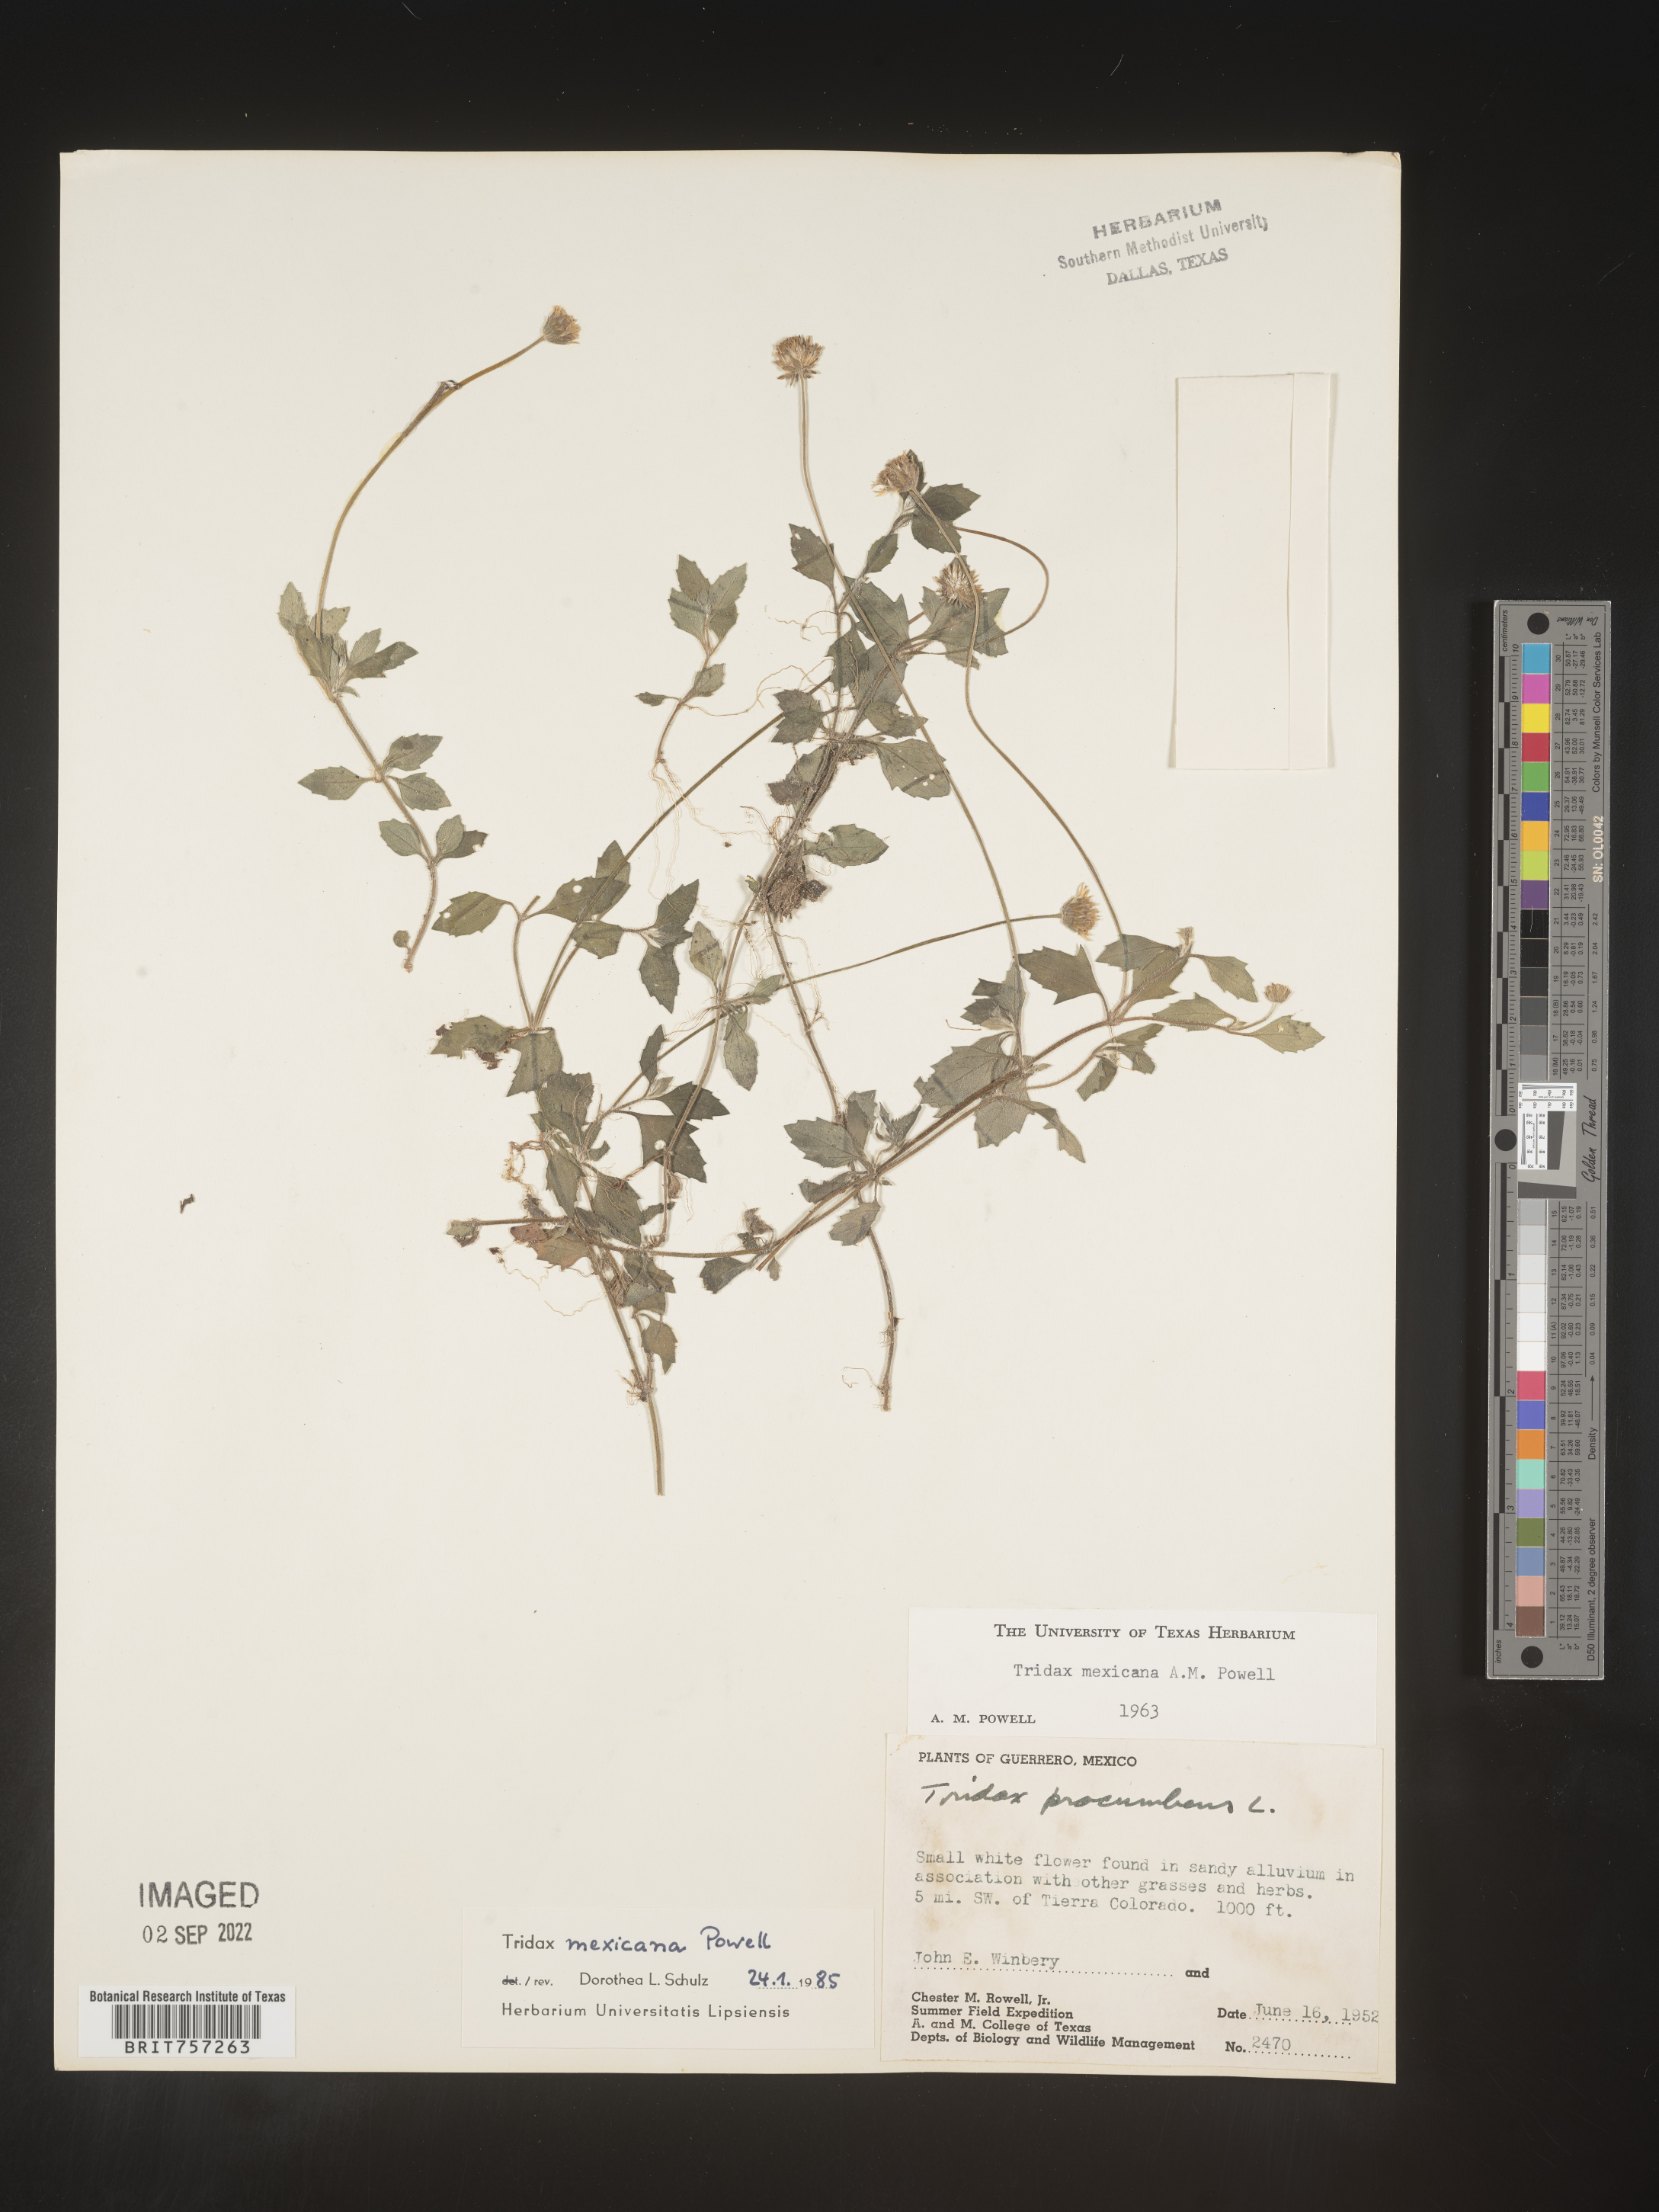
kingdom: Plantae
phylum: Tracheophyta
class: Magnoliopsida
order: Asterales
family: Asteraceae
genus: Tridax
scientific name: Tridax
